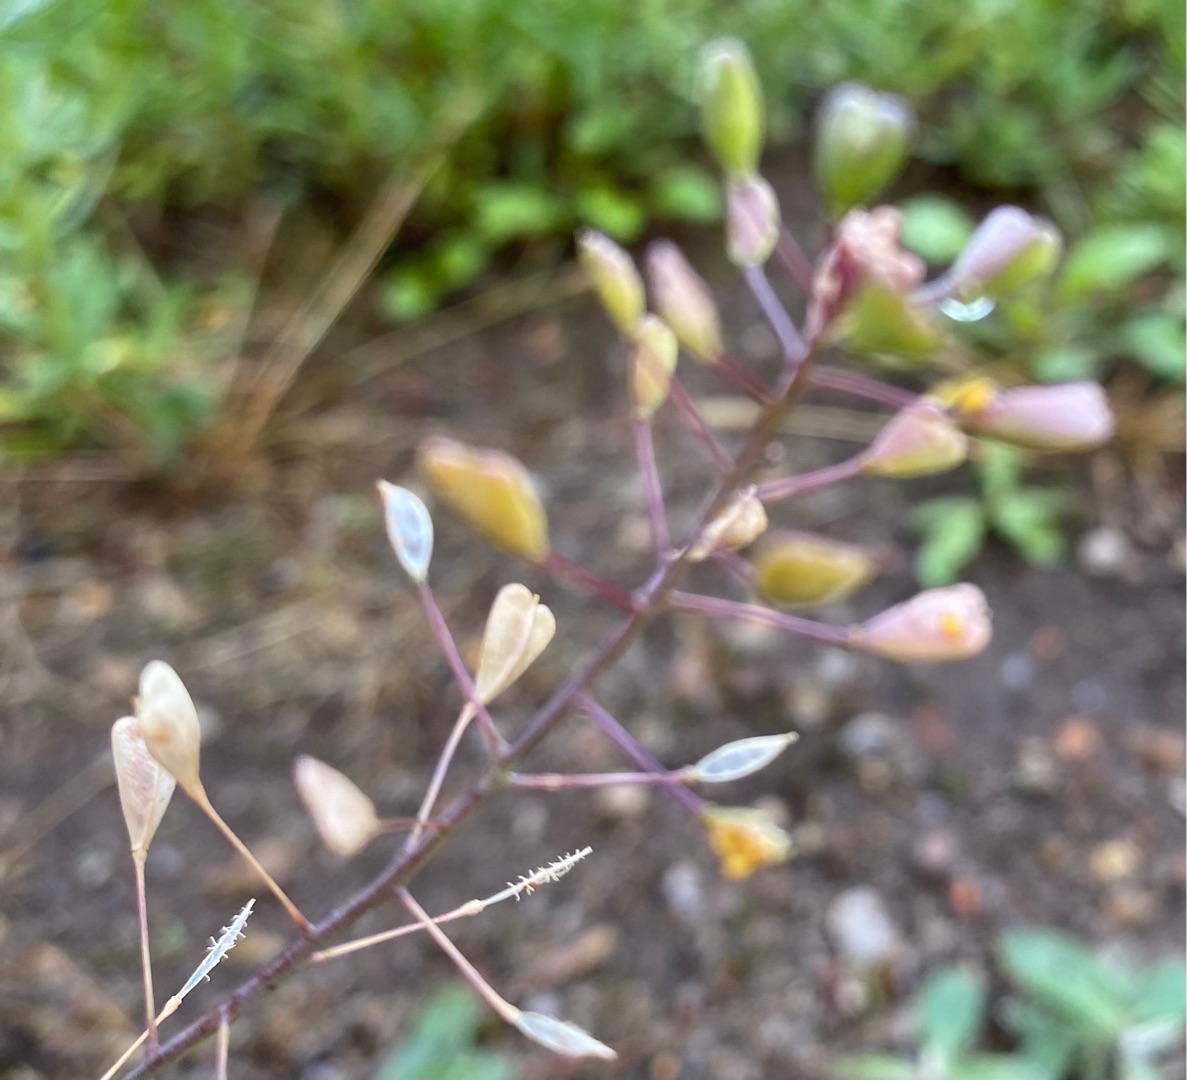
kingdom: Plantae
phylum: Tracheophyta
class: Magnoliopsida
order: Brassicales
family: Brassicaceae
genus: Capsella
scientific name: Capsella bursa-pastoris
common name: Hyrdetaske
